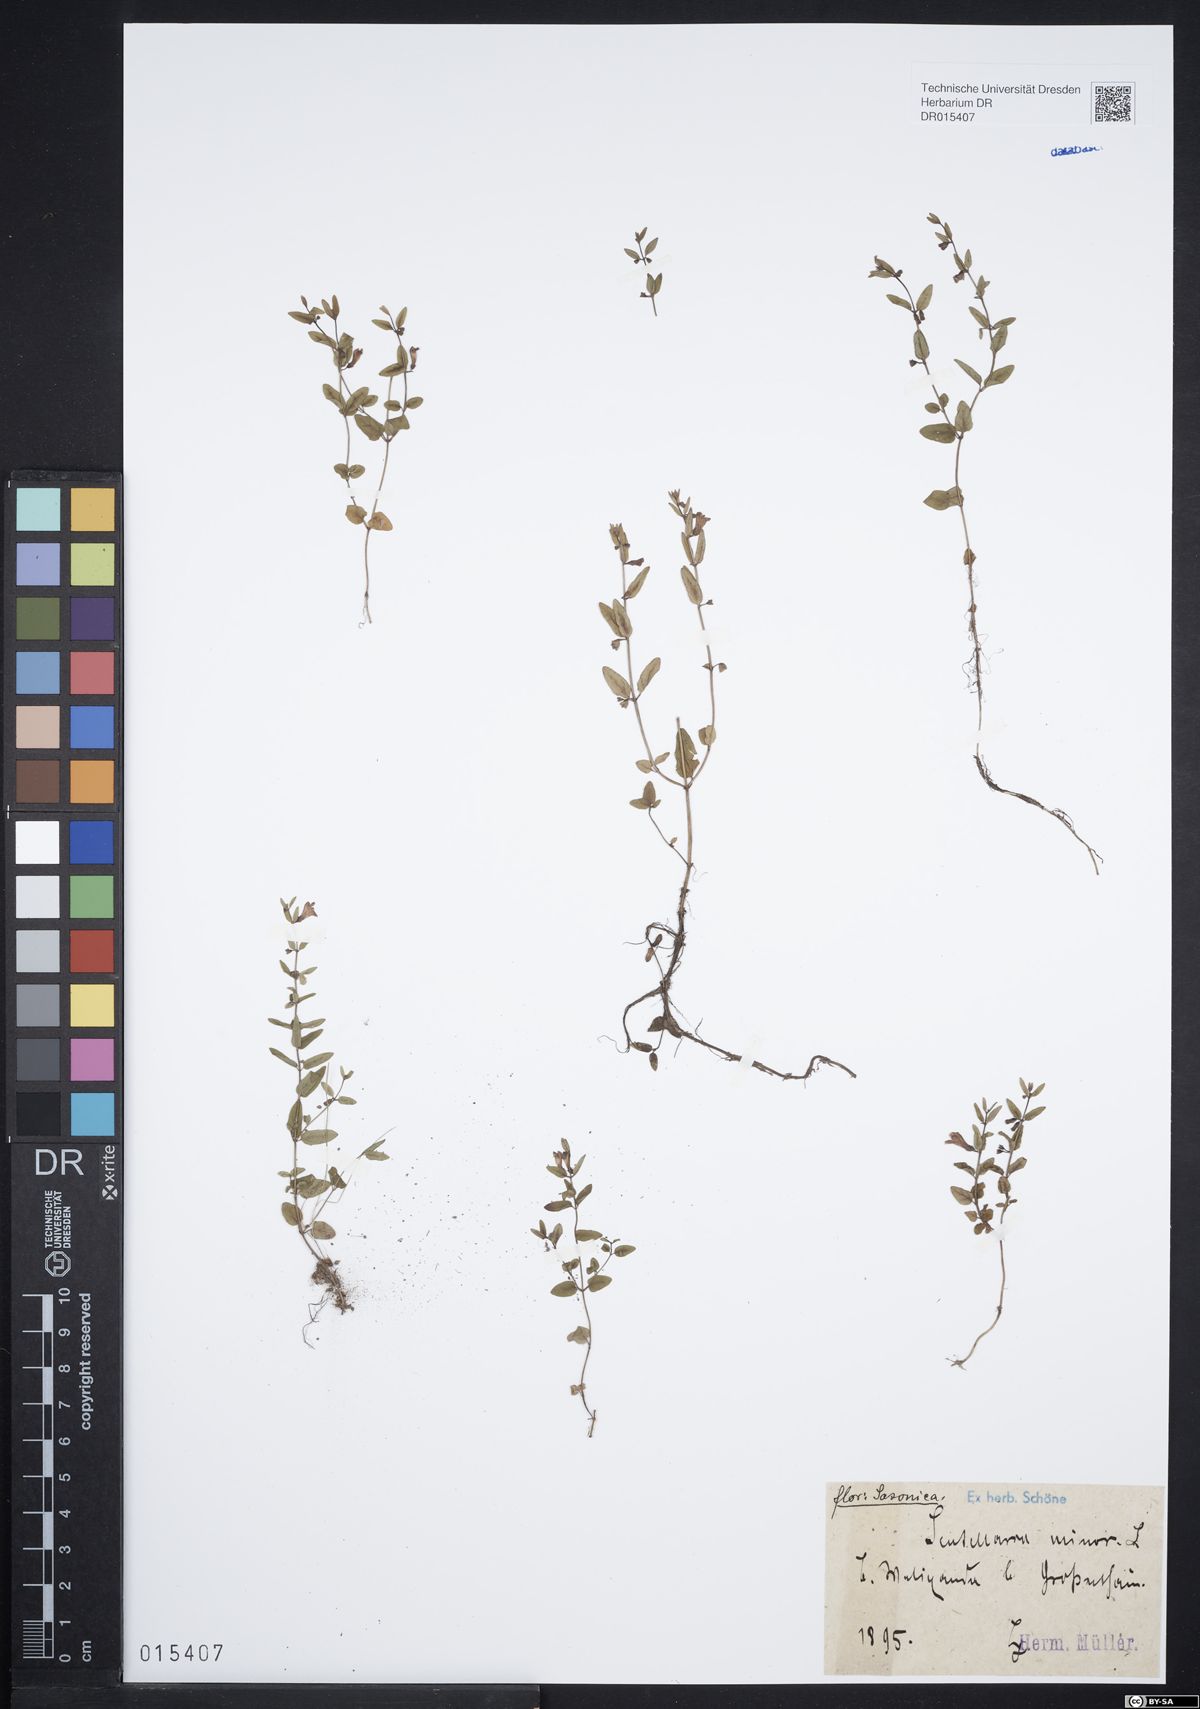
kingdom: Plantae
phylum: Tracheophyta
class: Magnoliopsida
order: Lamiales
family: Lamiaceae
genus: Scutellaria
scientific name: Scutellaria minor
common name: Lesser skullcap
